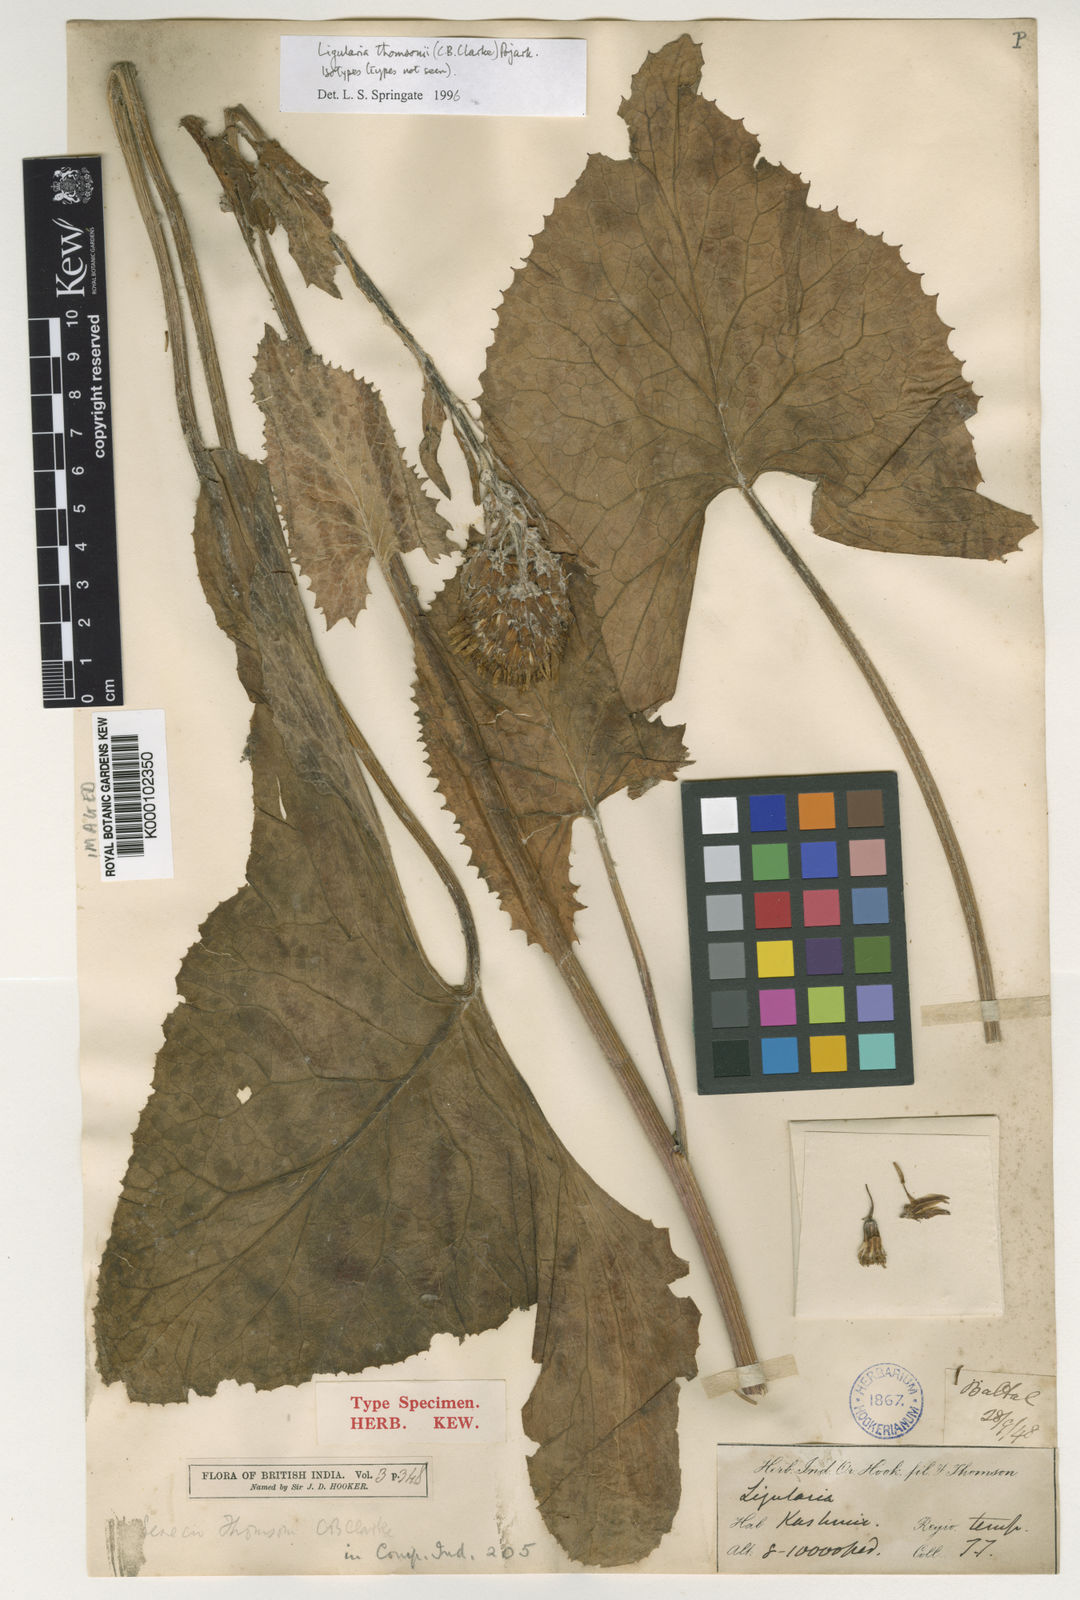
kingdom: Plantae
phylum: Tracheophyta
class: Magnoliopsida
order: Asterales
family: Asteraceae
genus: Vickifunkia
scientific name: Vickifunkia thomsonii
